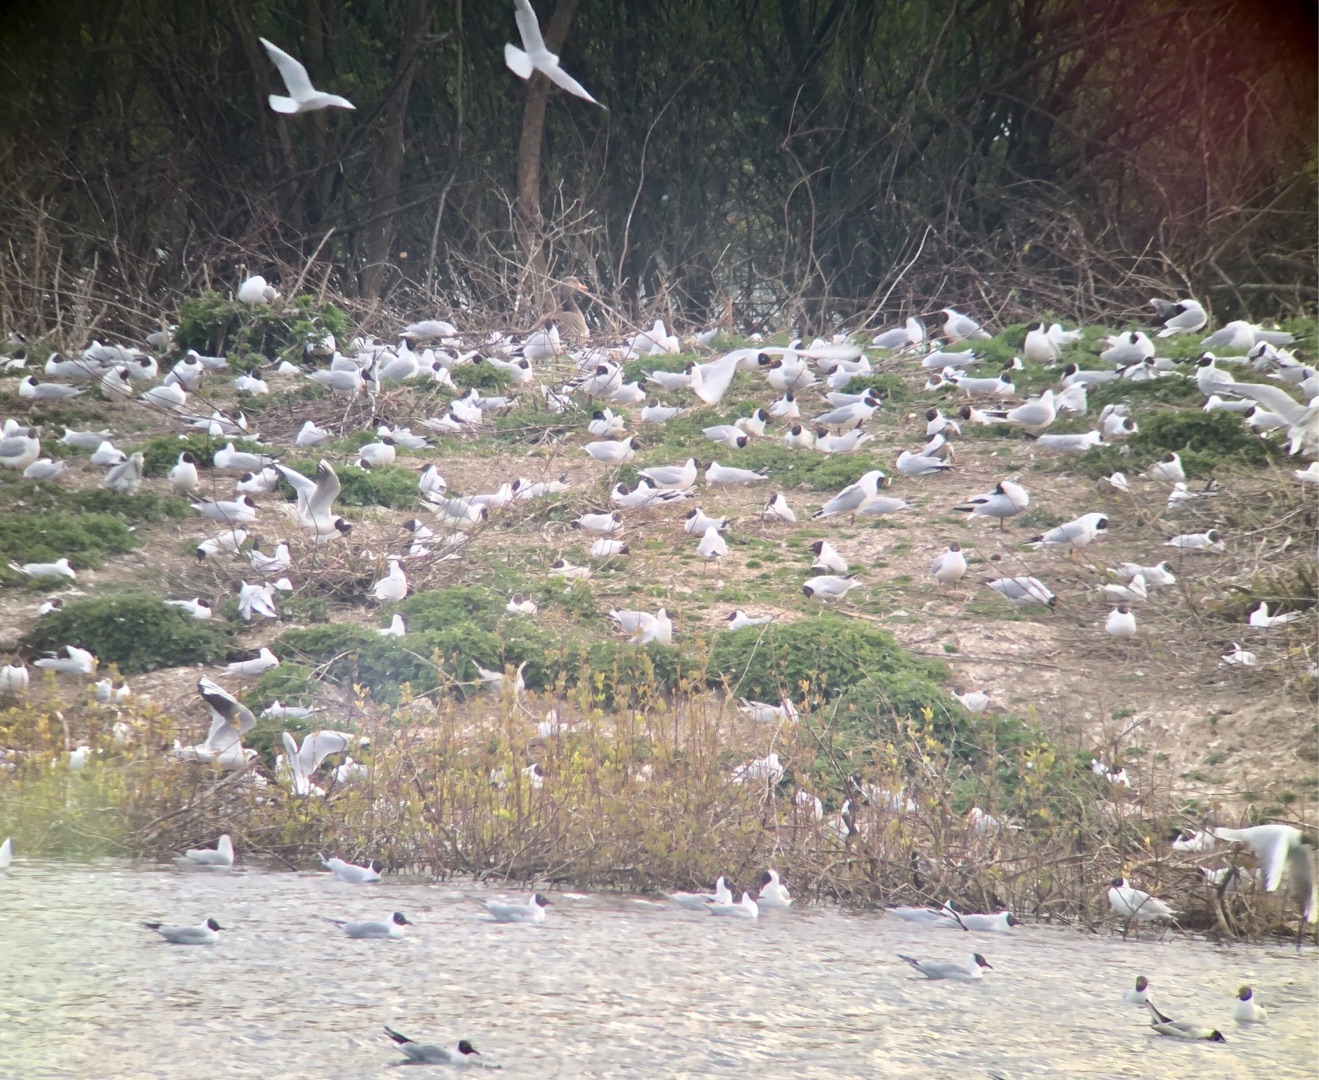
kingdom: Animalia
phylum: Chordata
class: Aves
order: Charadriiformes
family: Laridae
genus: Chroicocephalus
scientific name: Chroicocephalus ridibundus
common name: Hættemåge
